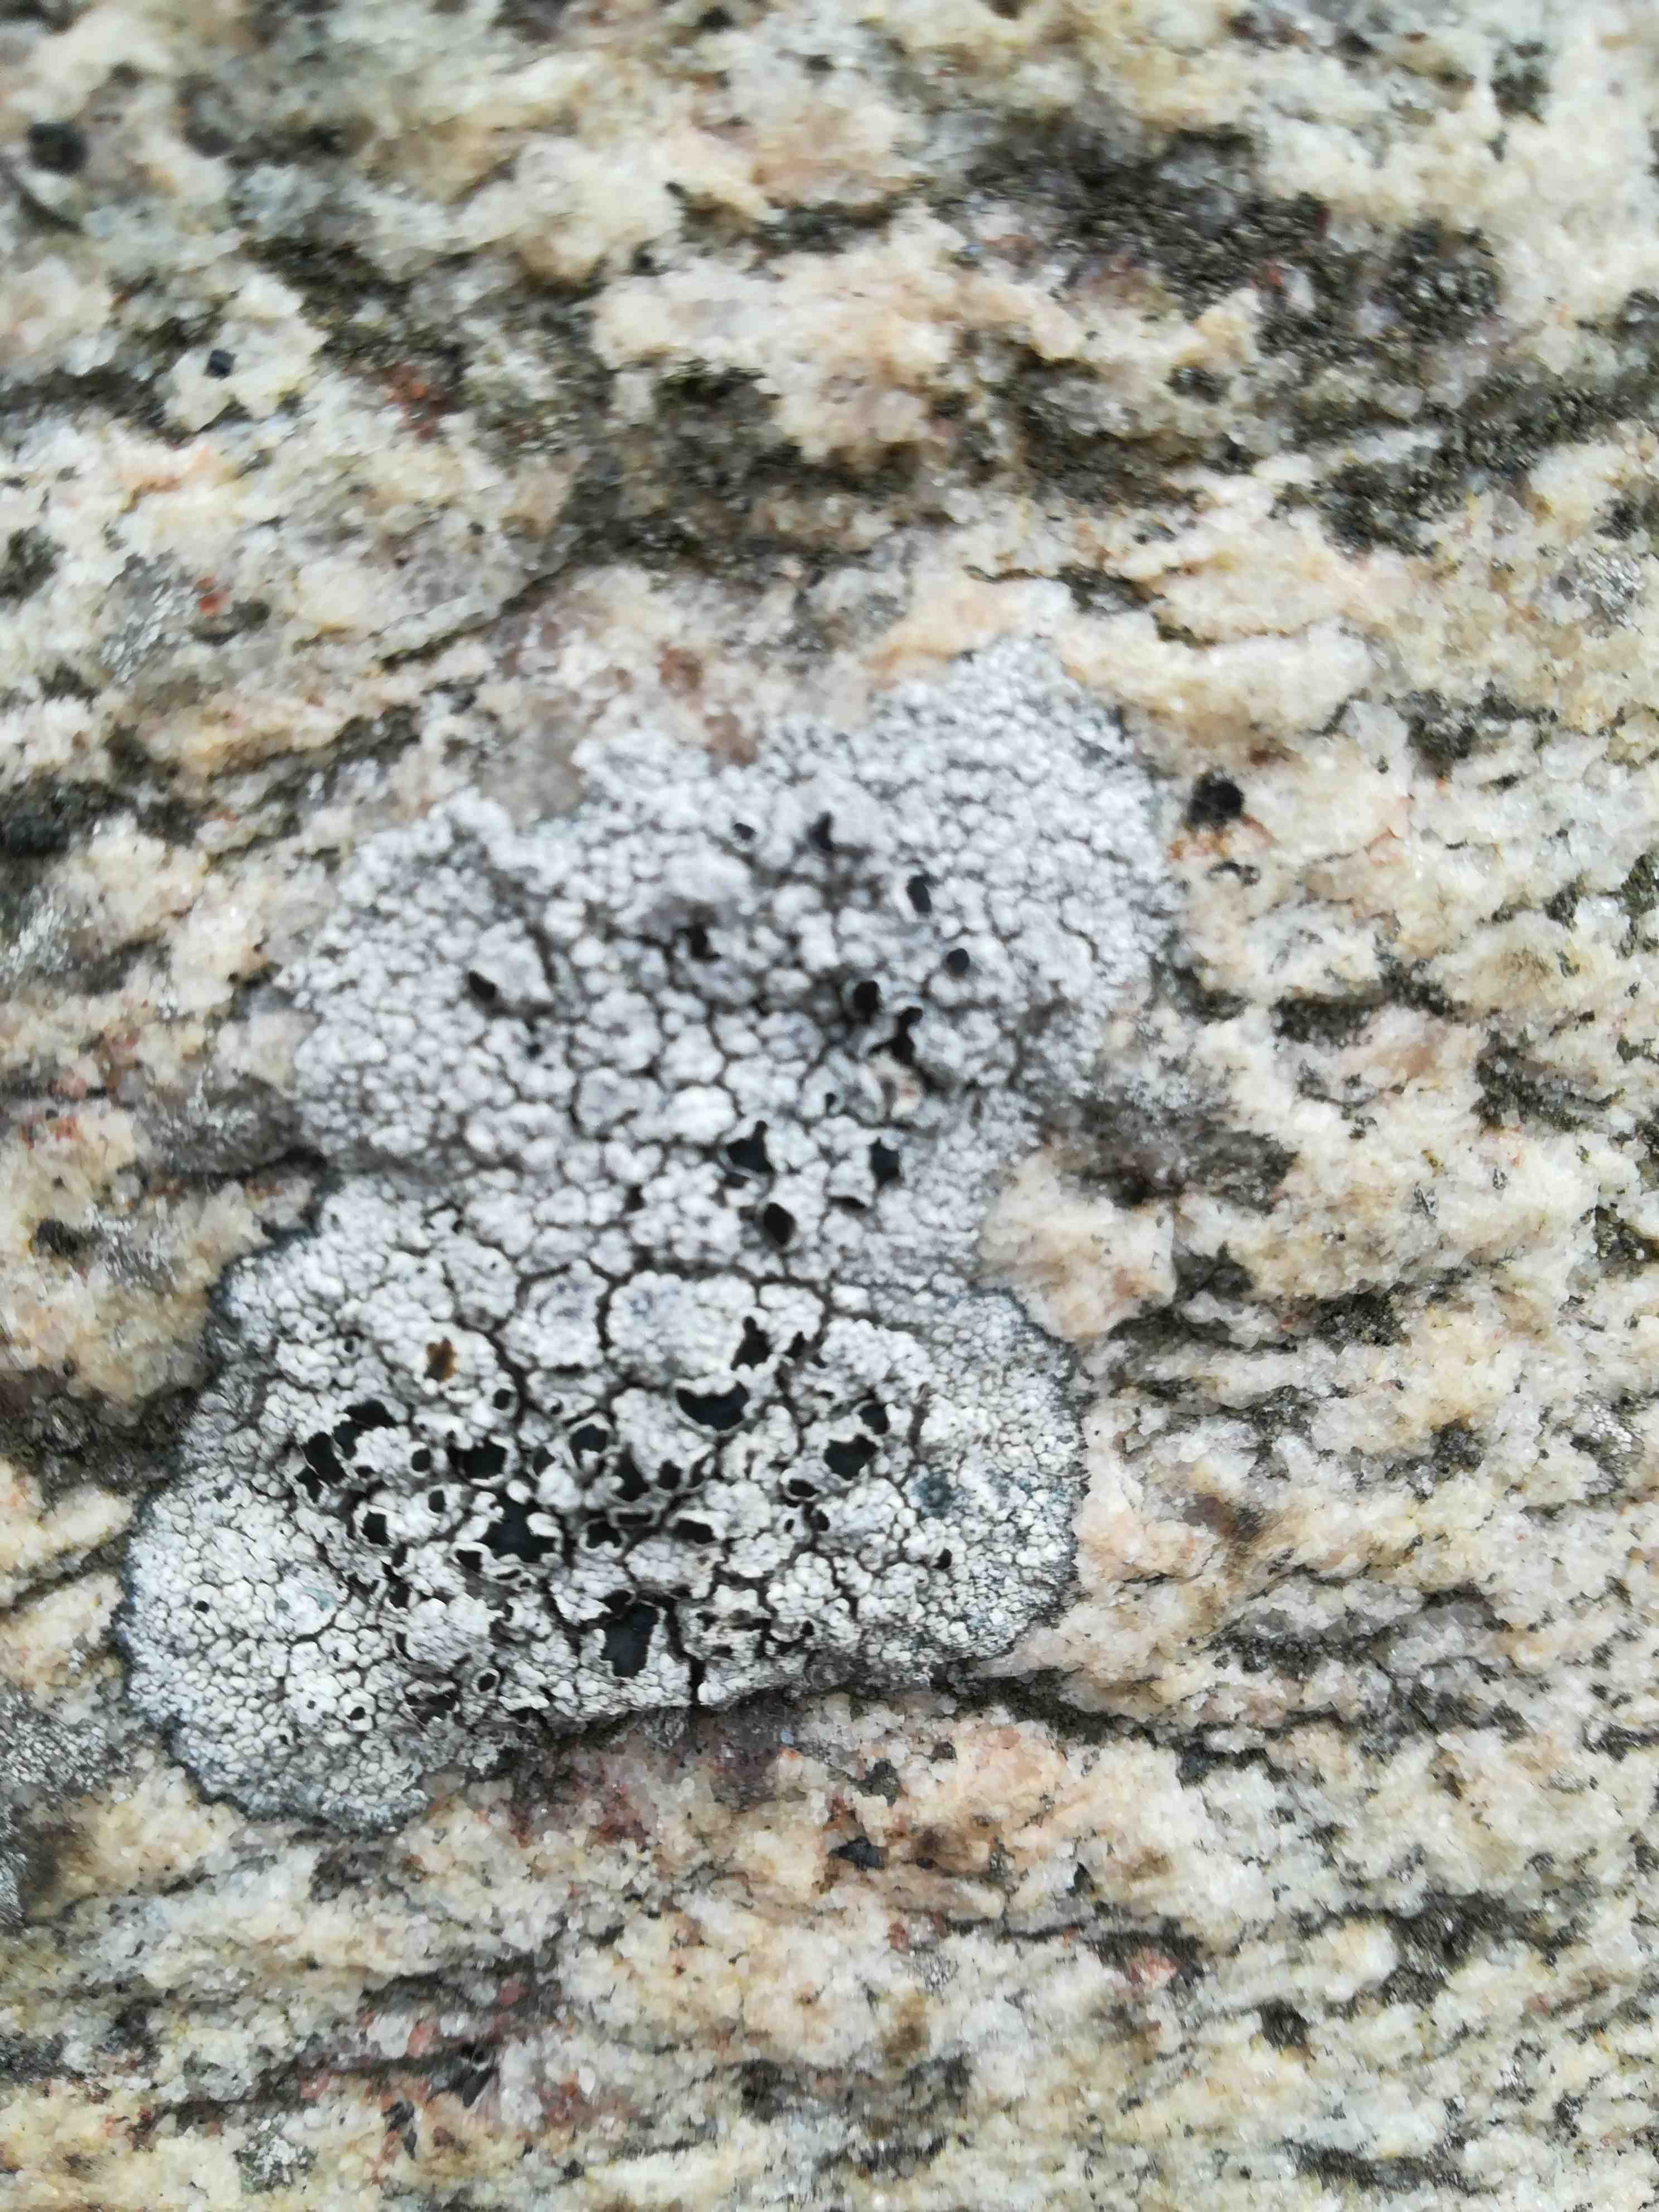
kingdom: Fungi
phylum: Ascomycota
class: Lecanoromycetes
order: Lecanorales
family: Tephromelataceae
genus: Tephromela
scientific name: Tephromela atra
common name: sortfrugtet kantskivelav
